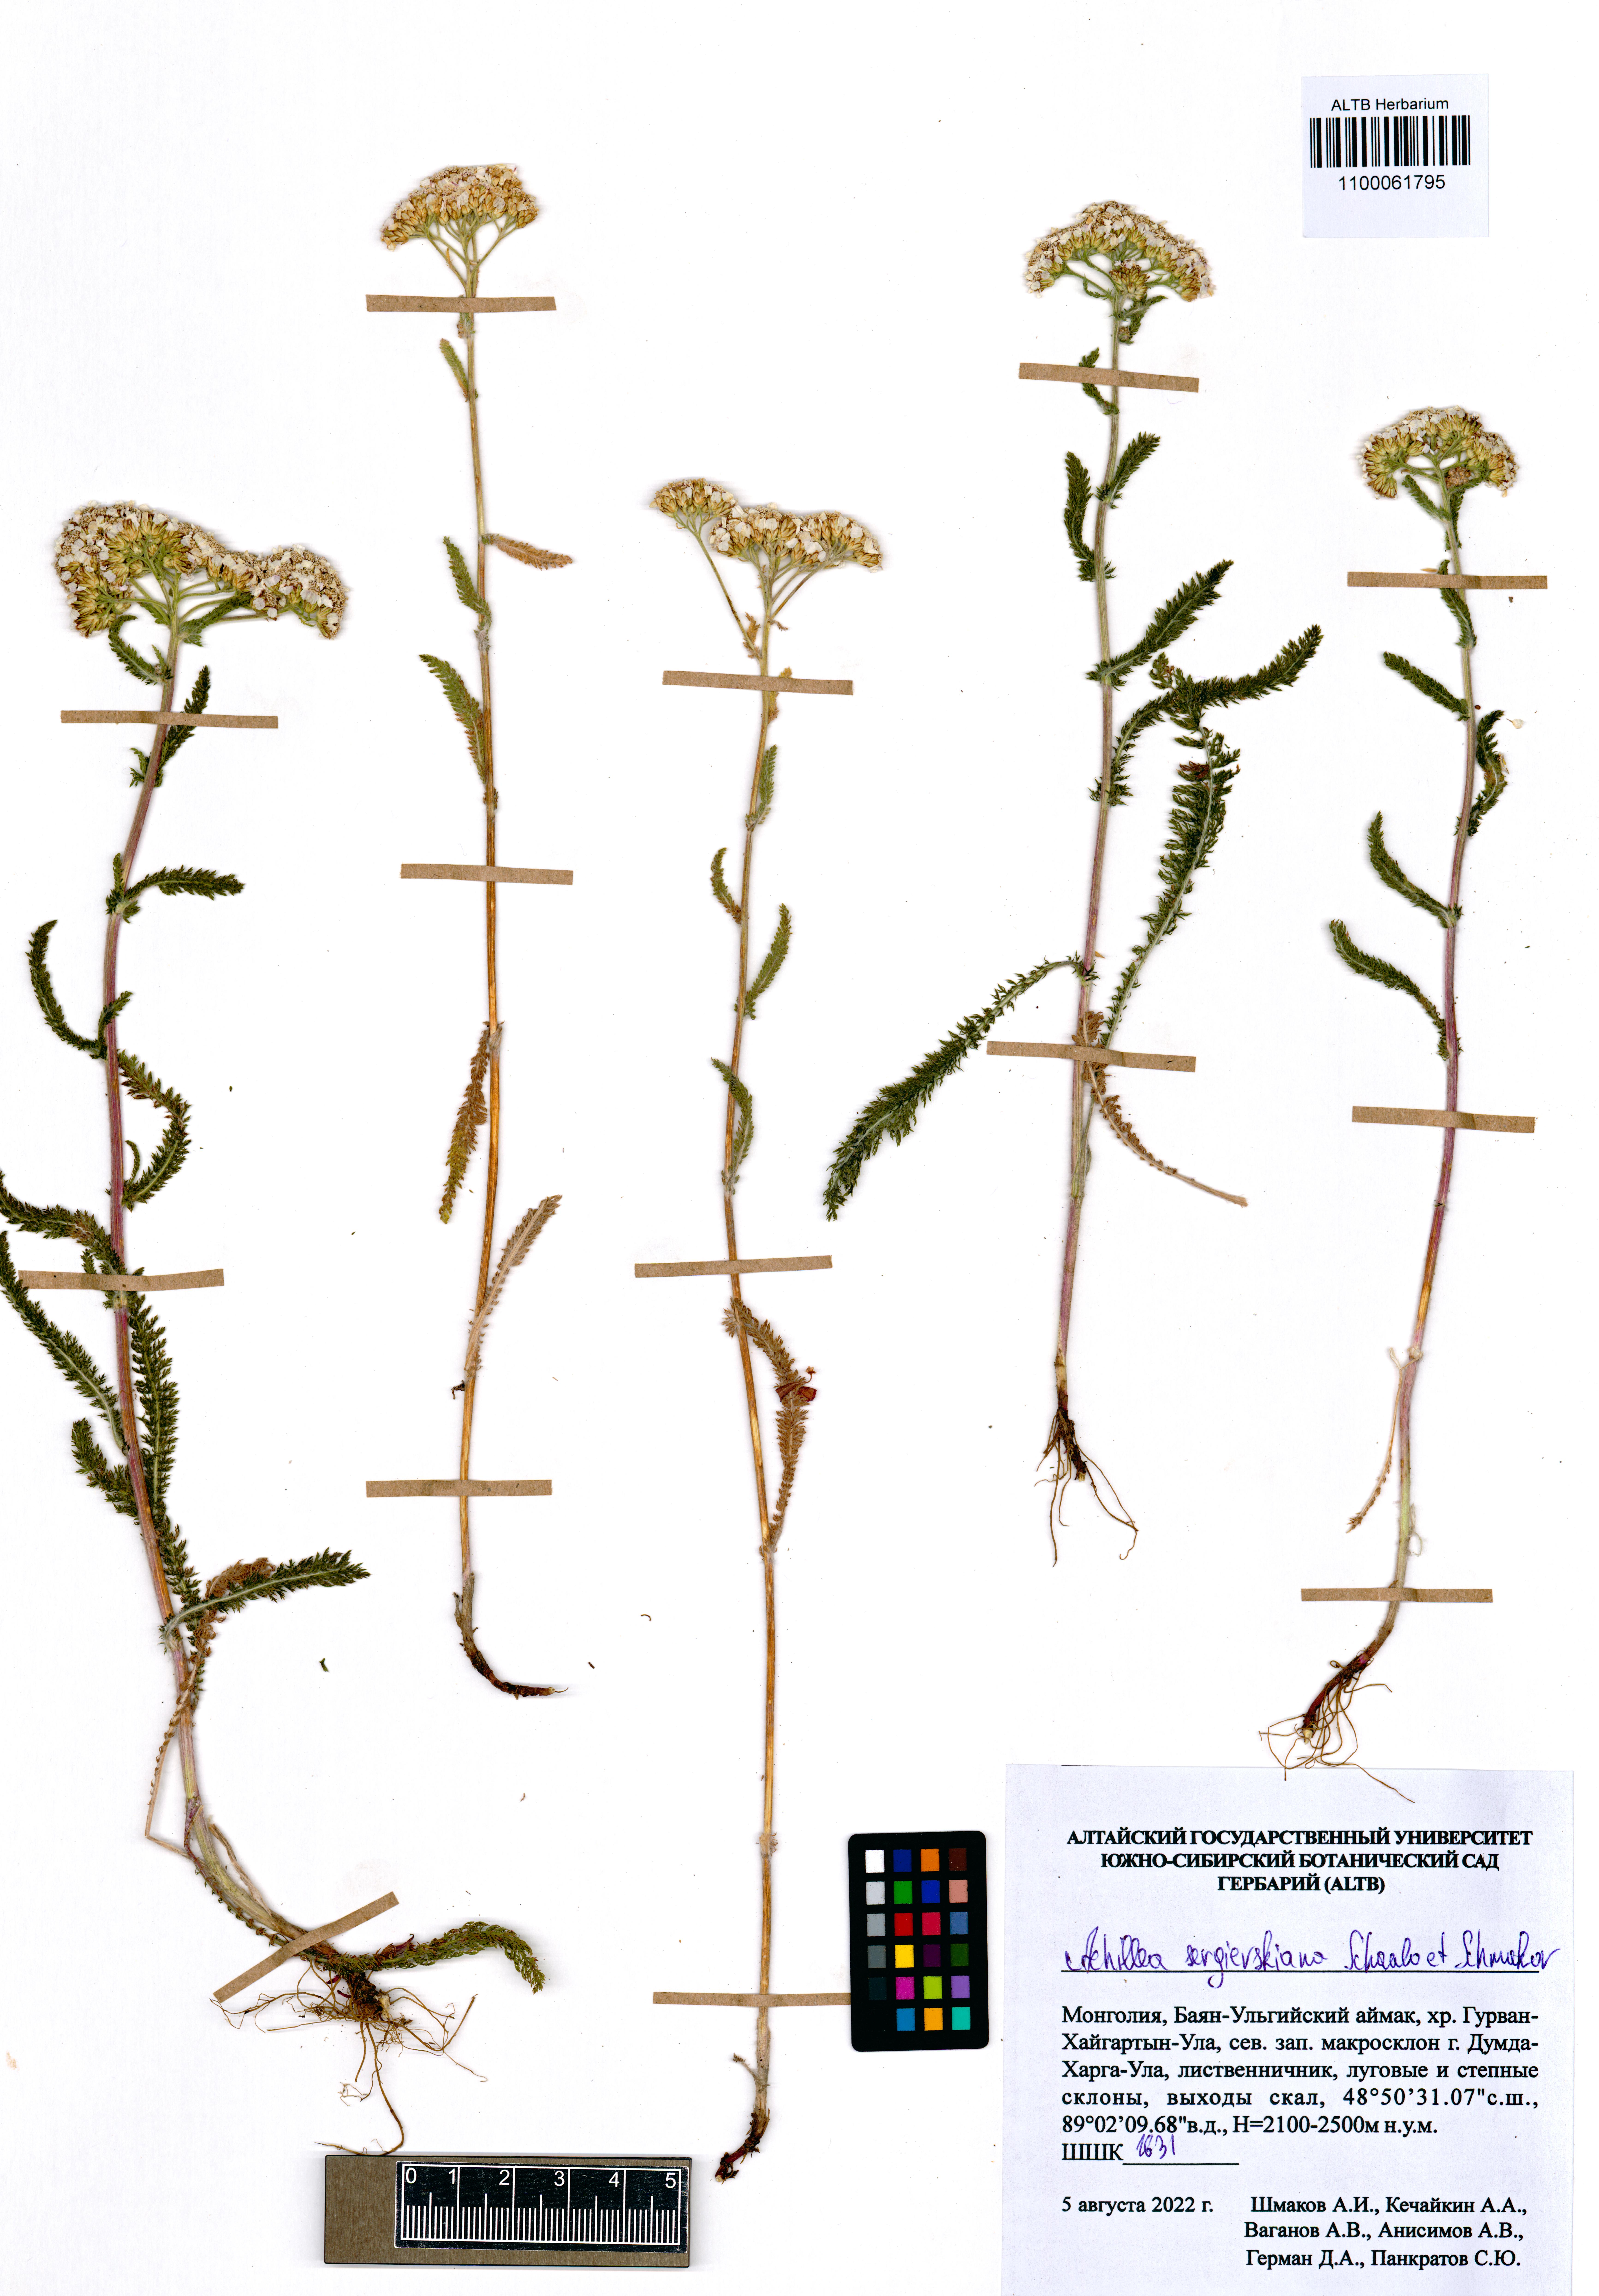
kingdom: Plantae
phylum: Tracheophyta
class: Magnoliopsida
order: Asterales
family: Asteraceae
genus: Achillea
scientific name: Achillea sergievskiana
